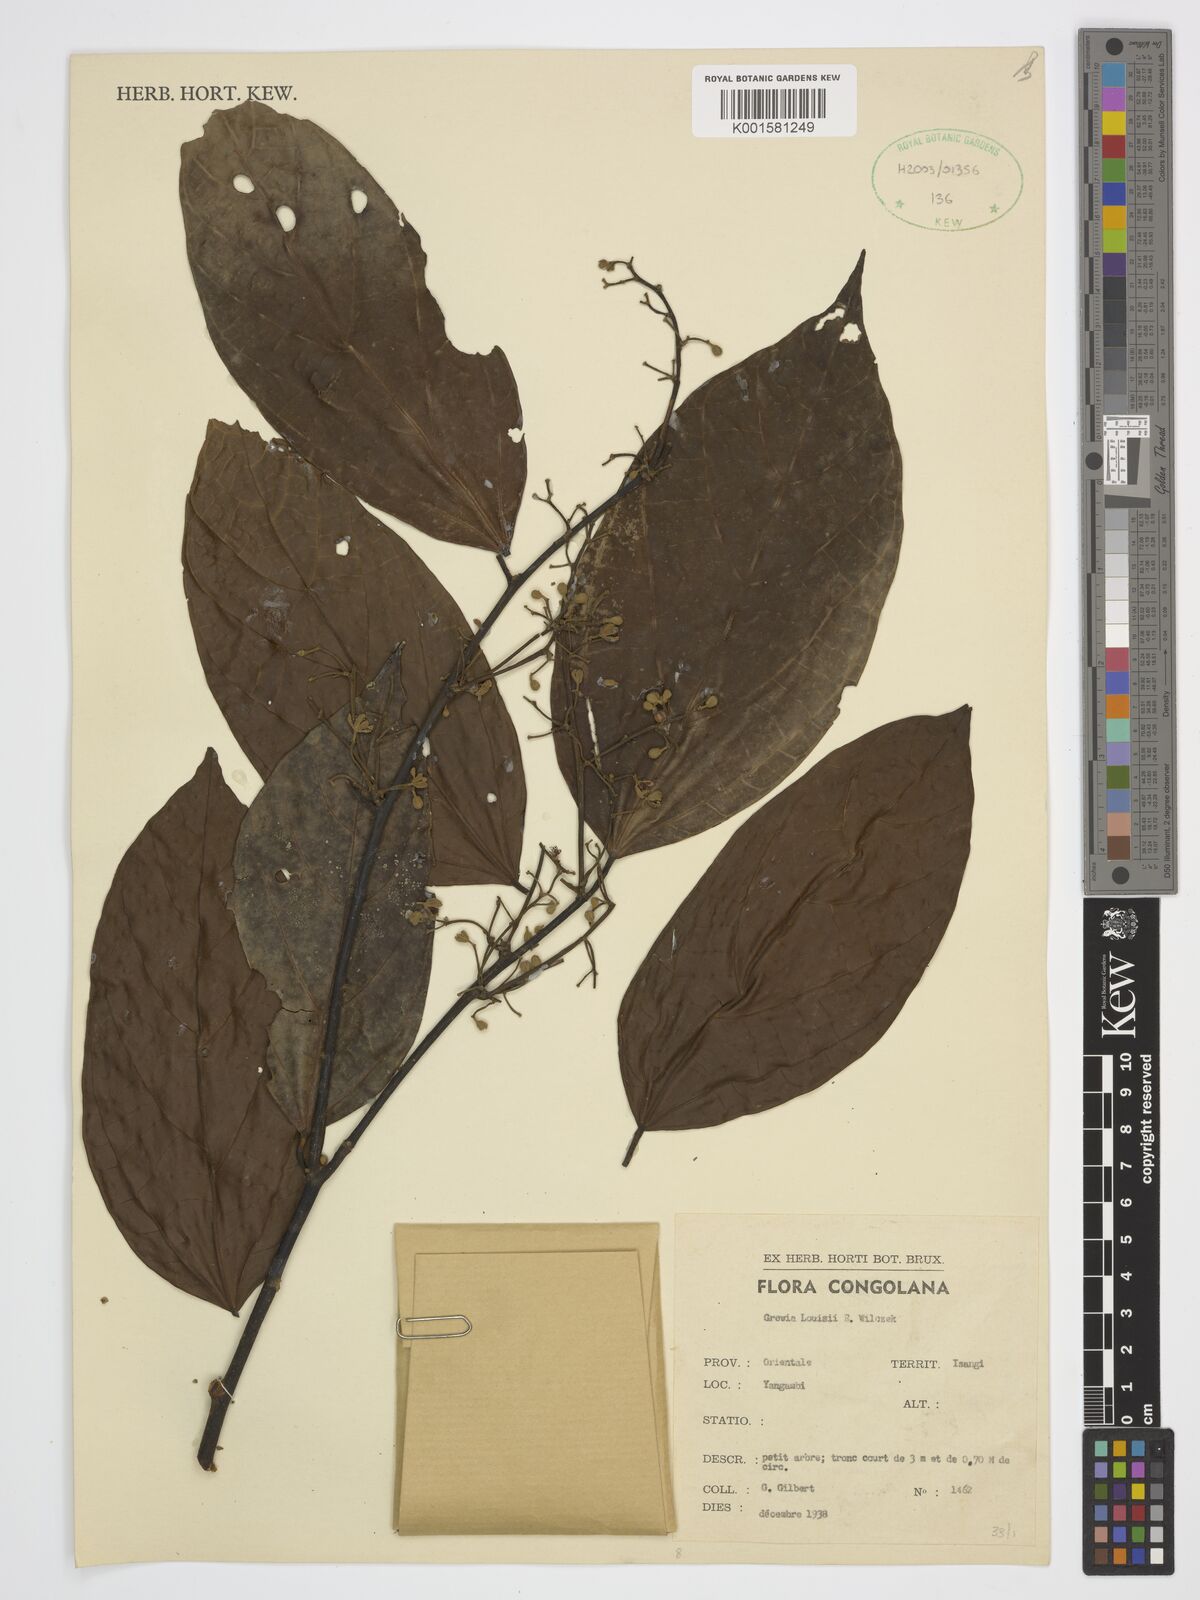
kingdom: Plantae
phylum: Tracheophyta
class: Magnoliopsida
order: Malvales
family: Malvaceae
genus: Grewia
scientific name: Grewia louisii
